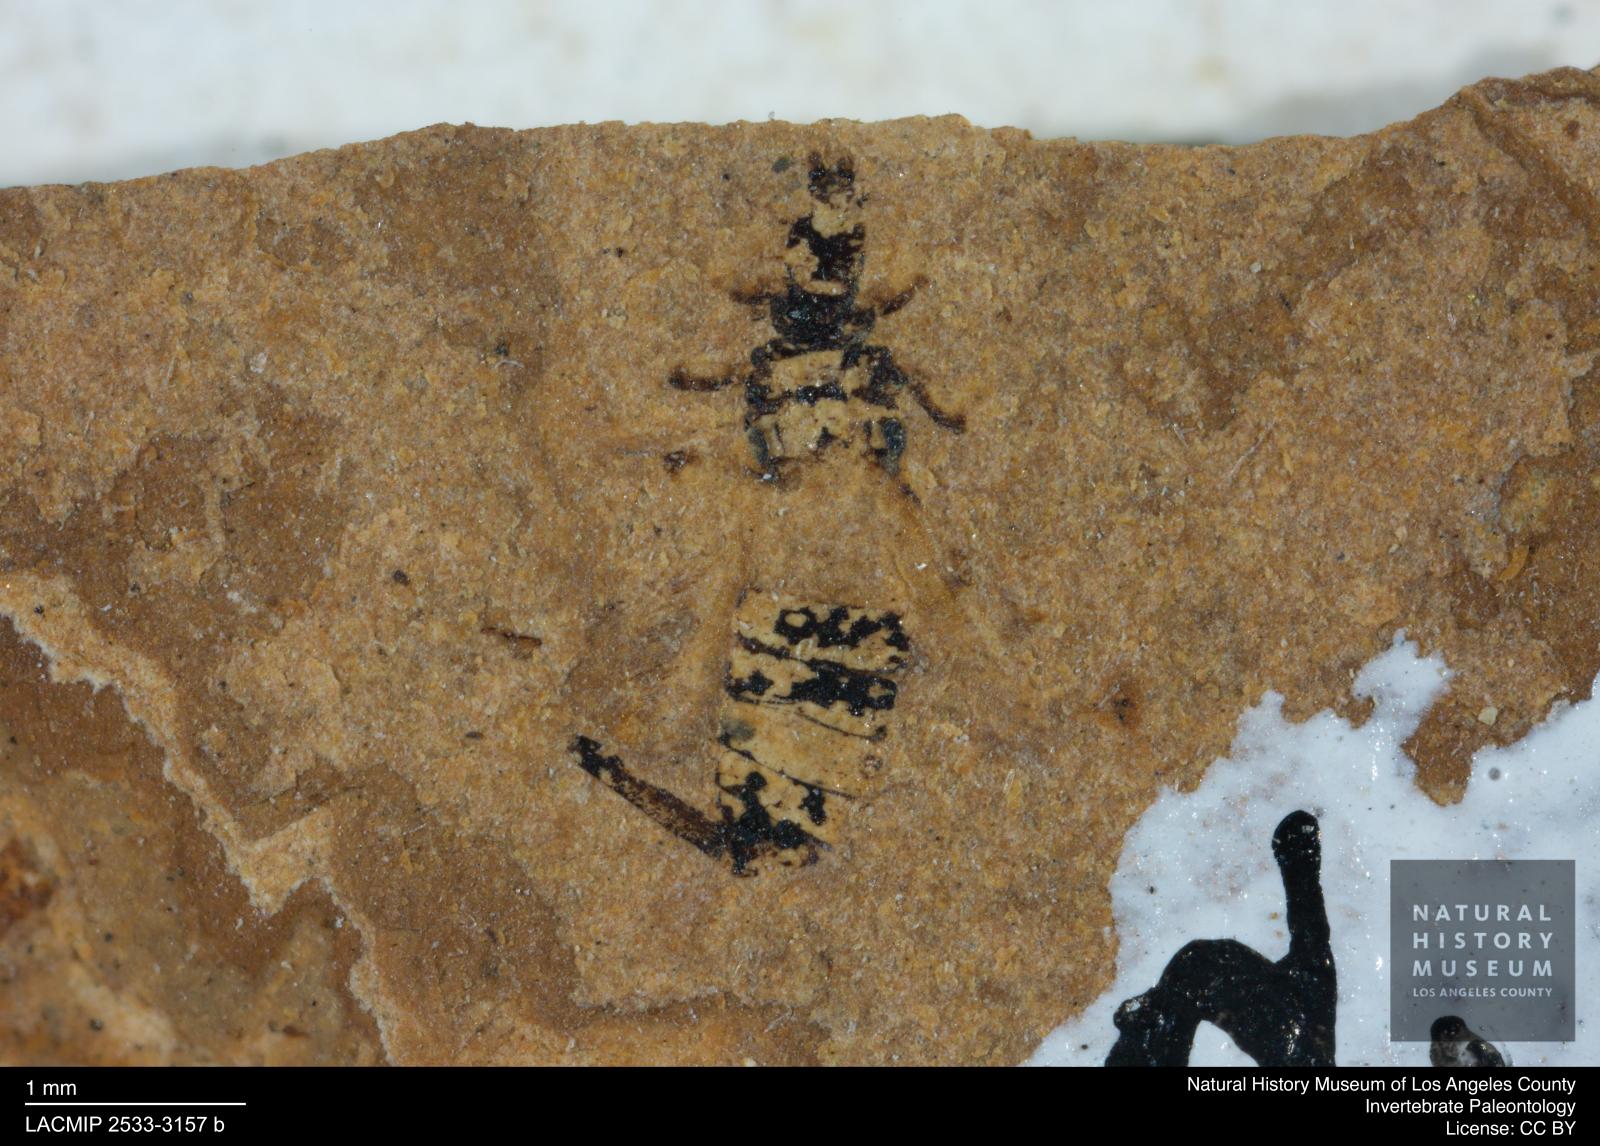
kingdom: Animalia
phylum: Arthropoda
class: Insecta
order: Thysanoptera
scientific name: Thysanoptera
